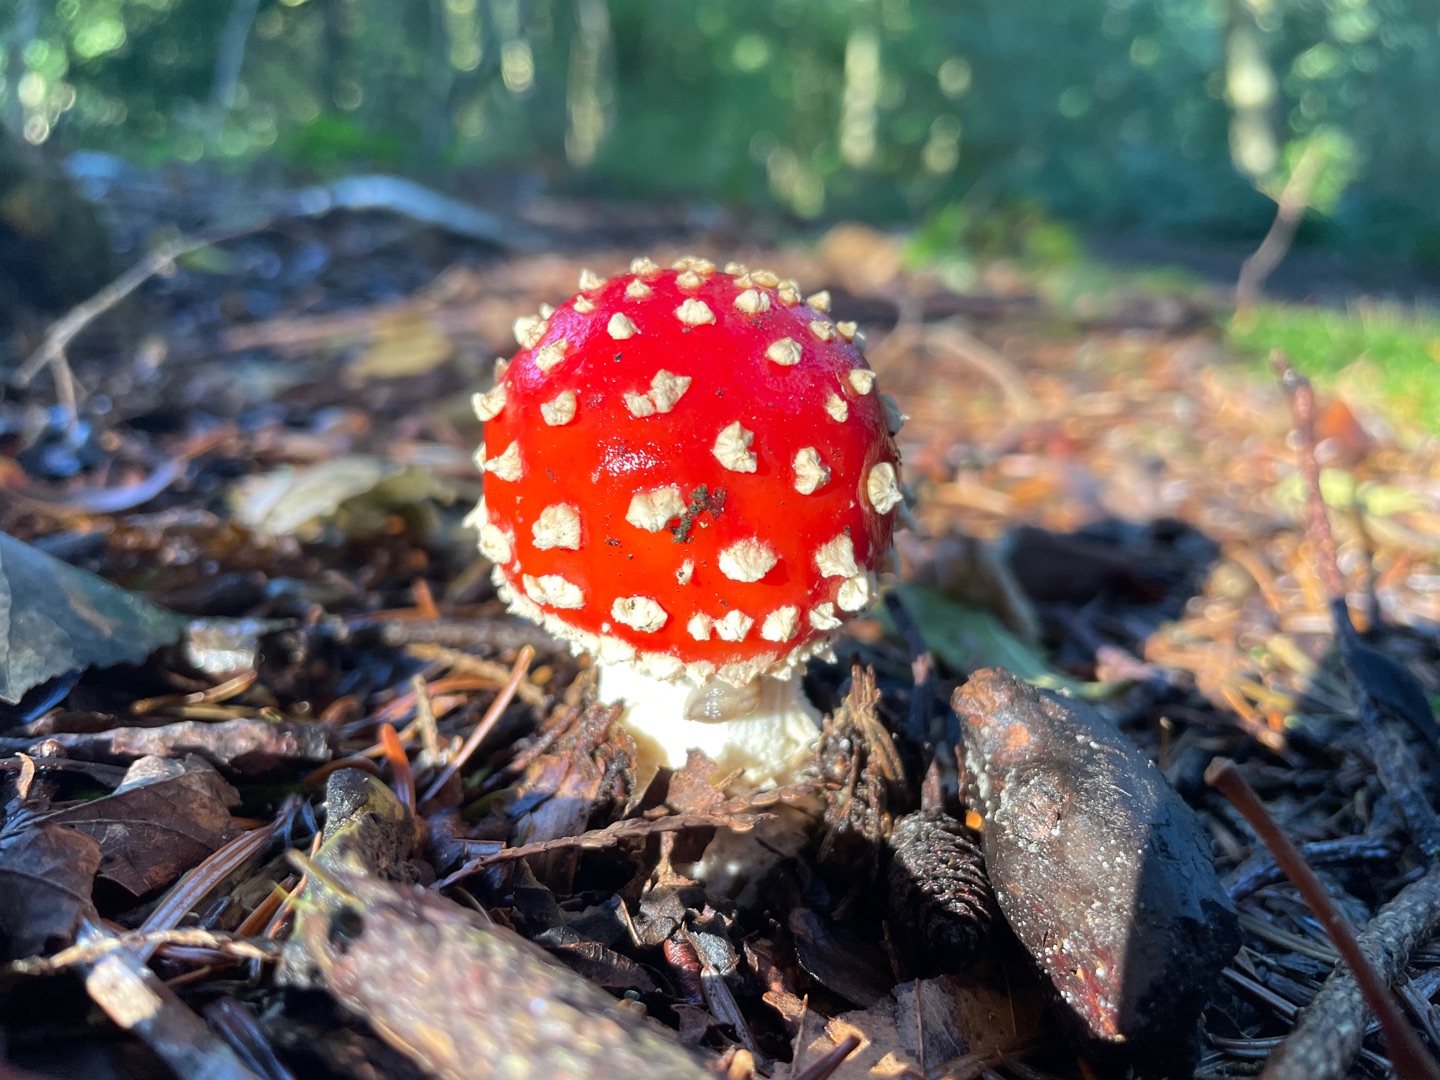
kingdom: Fungi
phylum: Basidiomycota
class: Agaricomycetes
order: Agaricales
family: Amanitaceae
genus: Amanita
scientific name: Amanita muscaria
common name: Rød fluesvamp
